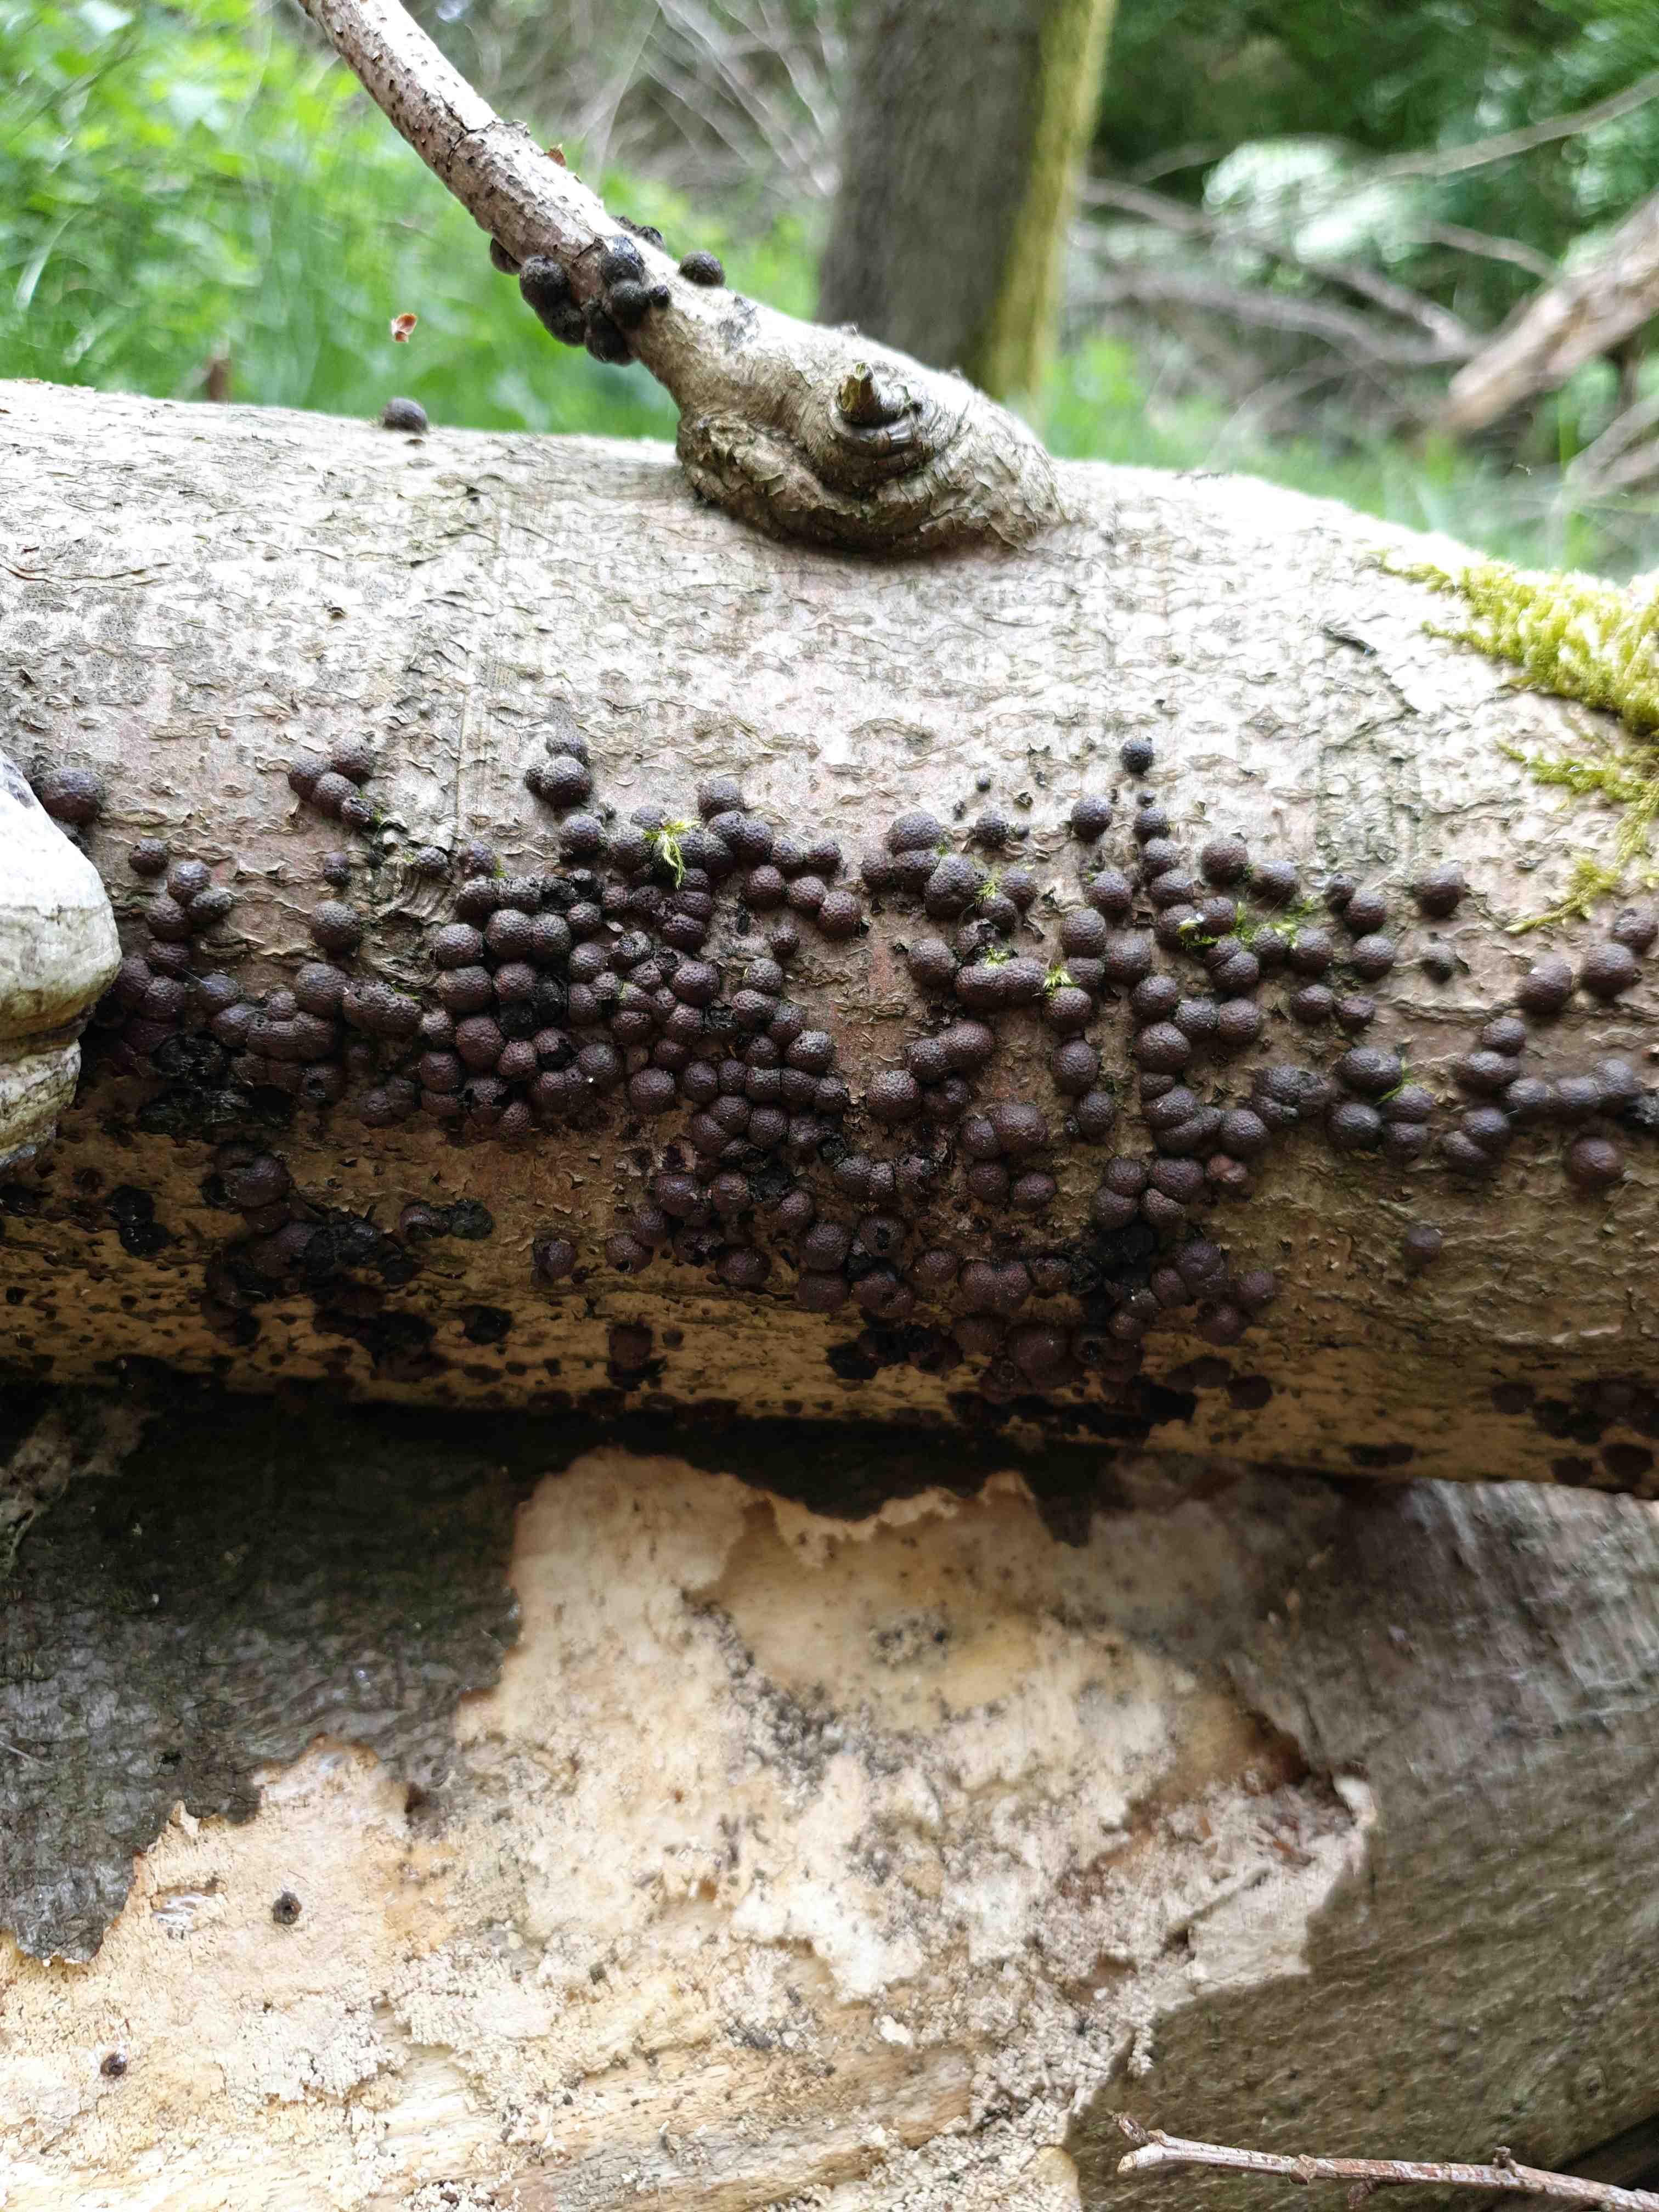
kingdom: Fungi
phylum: Ascomycota
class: Sordariomycetes
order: Xylariales
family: Hypoxylaceae
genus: Hypoxylon
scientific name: Hypoxylon fragiforme
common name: kuljordbær
